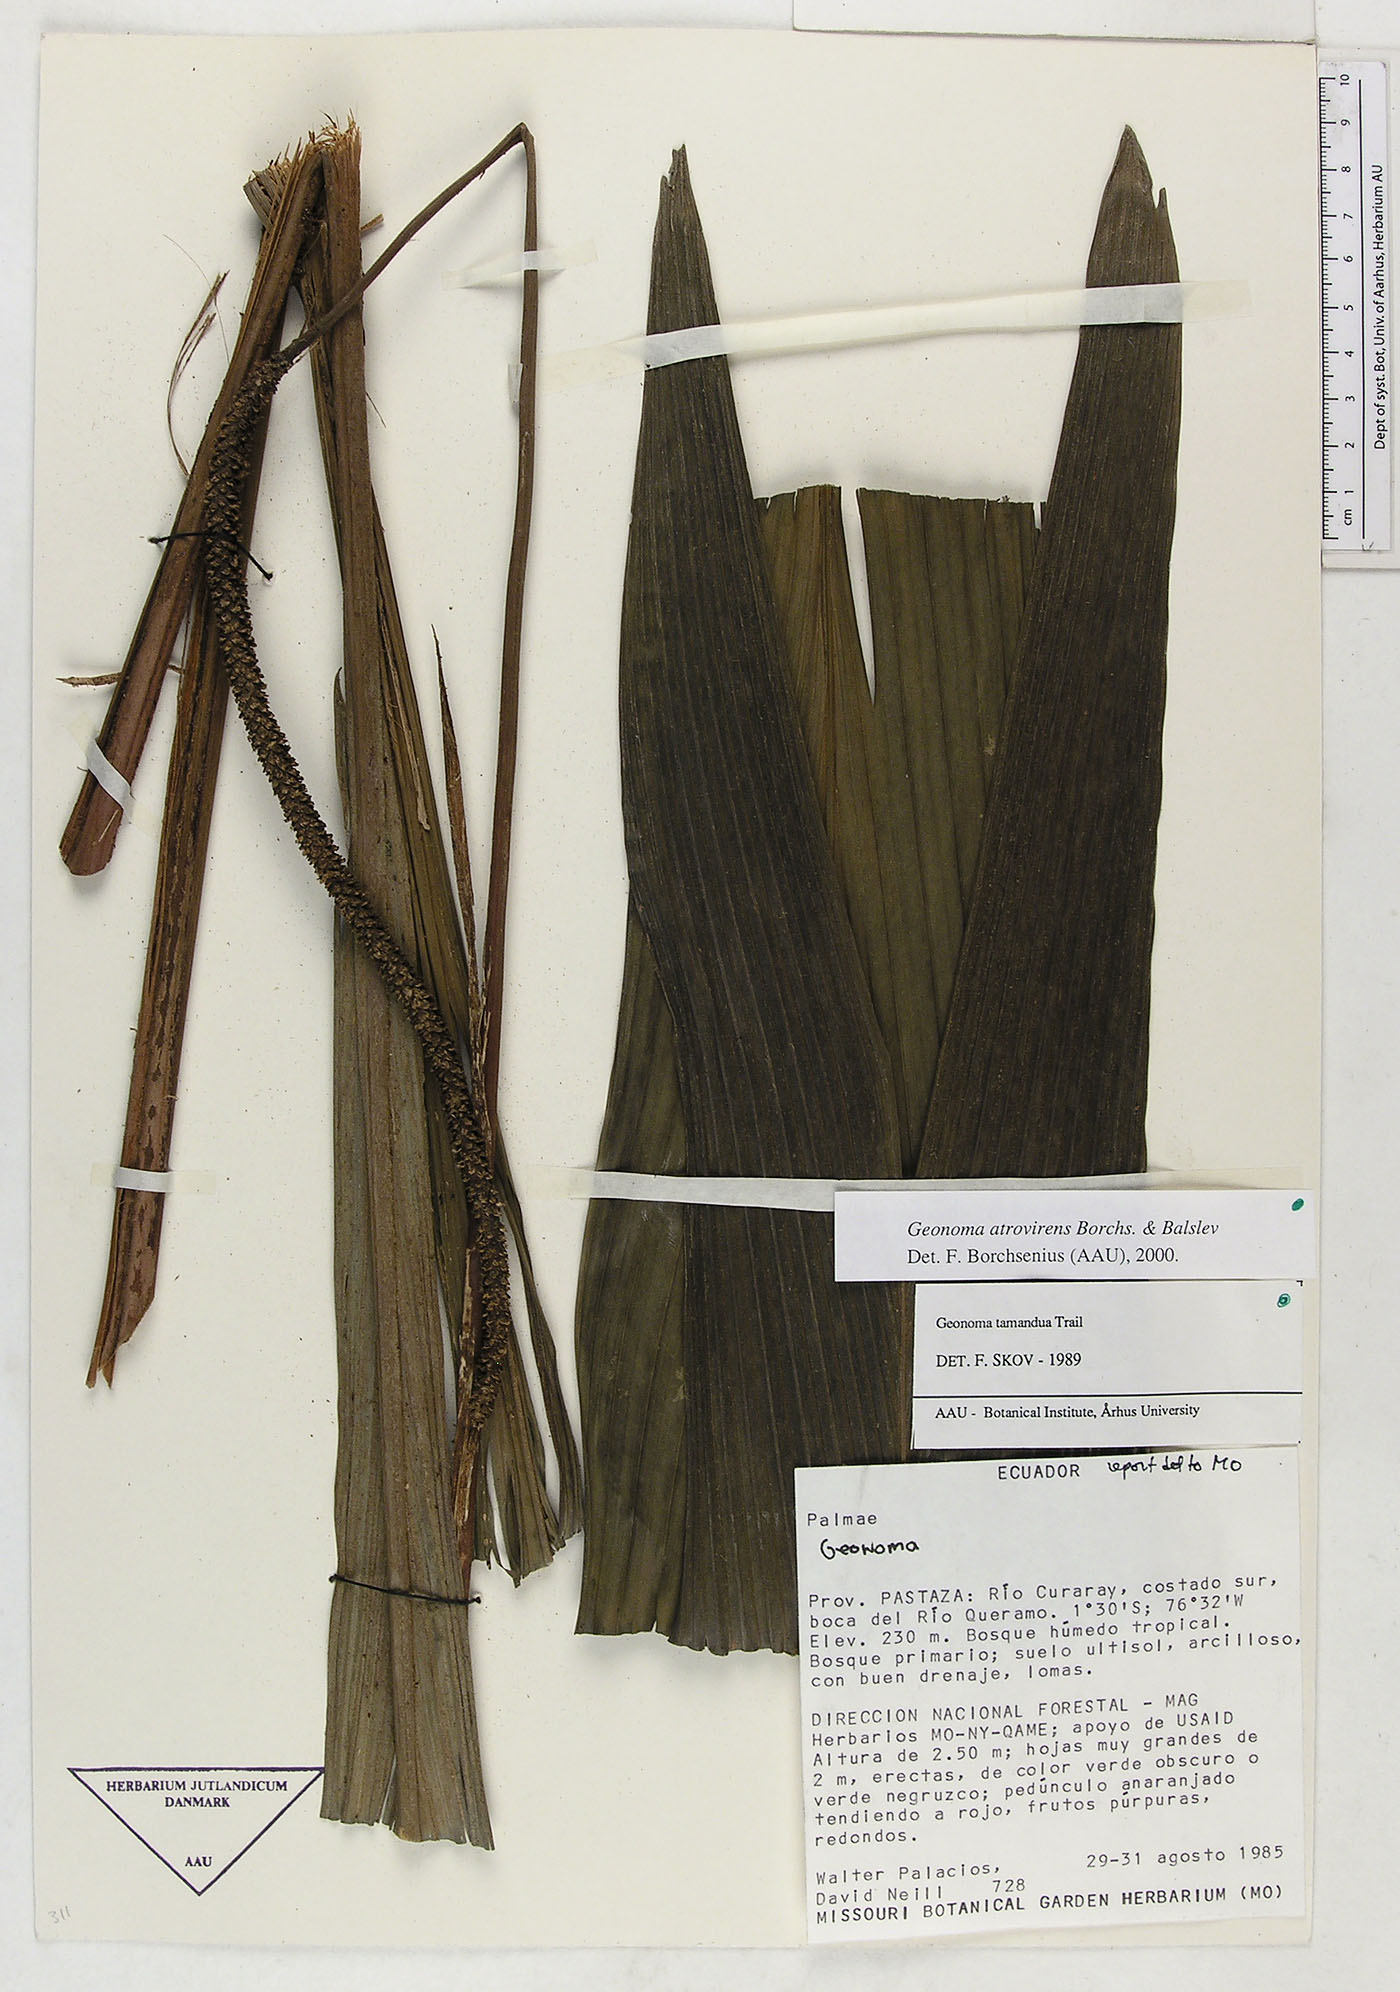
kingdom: Plantae
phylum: Tracheophyta
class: Liliopsida
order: Arecales
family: Arecaceae
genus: Geonoma
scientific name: Geonoma macrostachys
